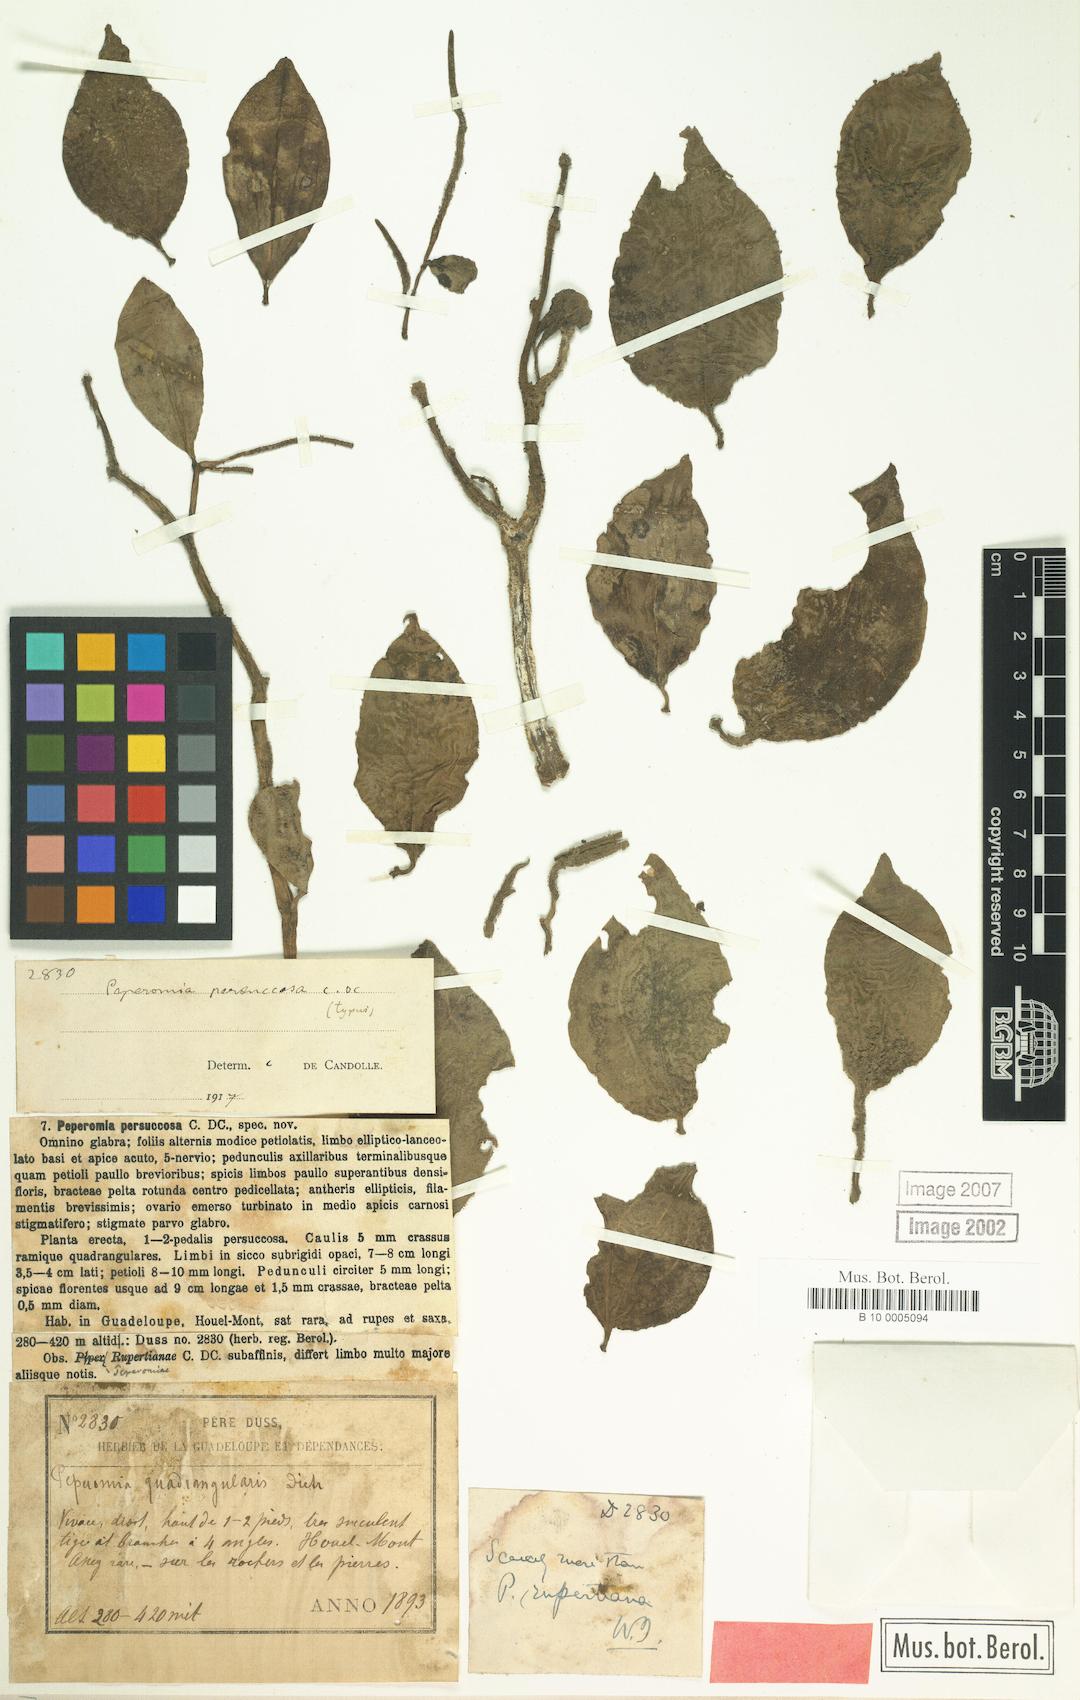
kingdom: Plantae
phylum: Tracheophyta
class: Magnoliopsida
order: Piperales
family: Piperaceae
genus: Peperomia
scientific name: Peperomia myrtifolia
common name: Myrtleleaf peperomia
